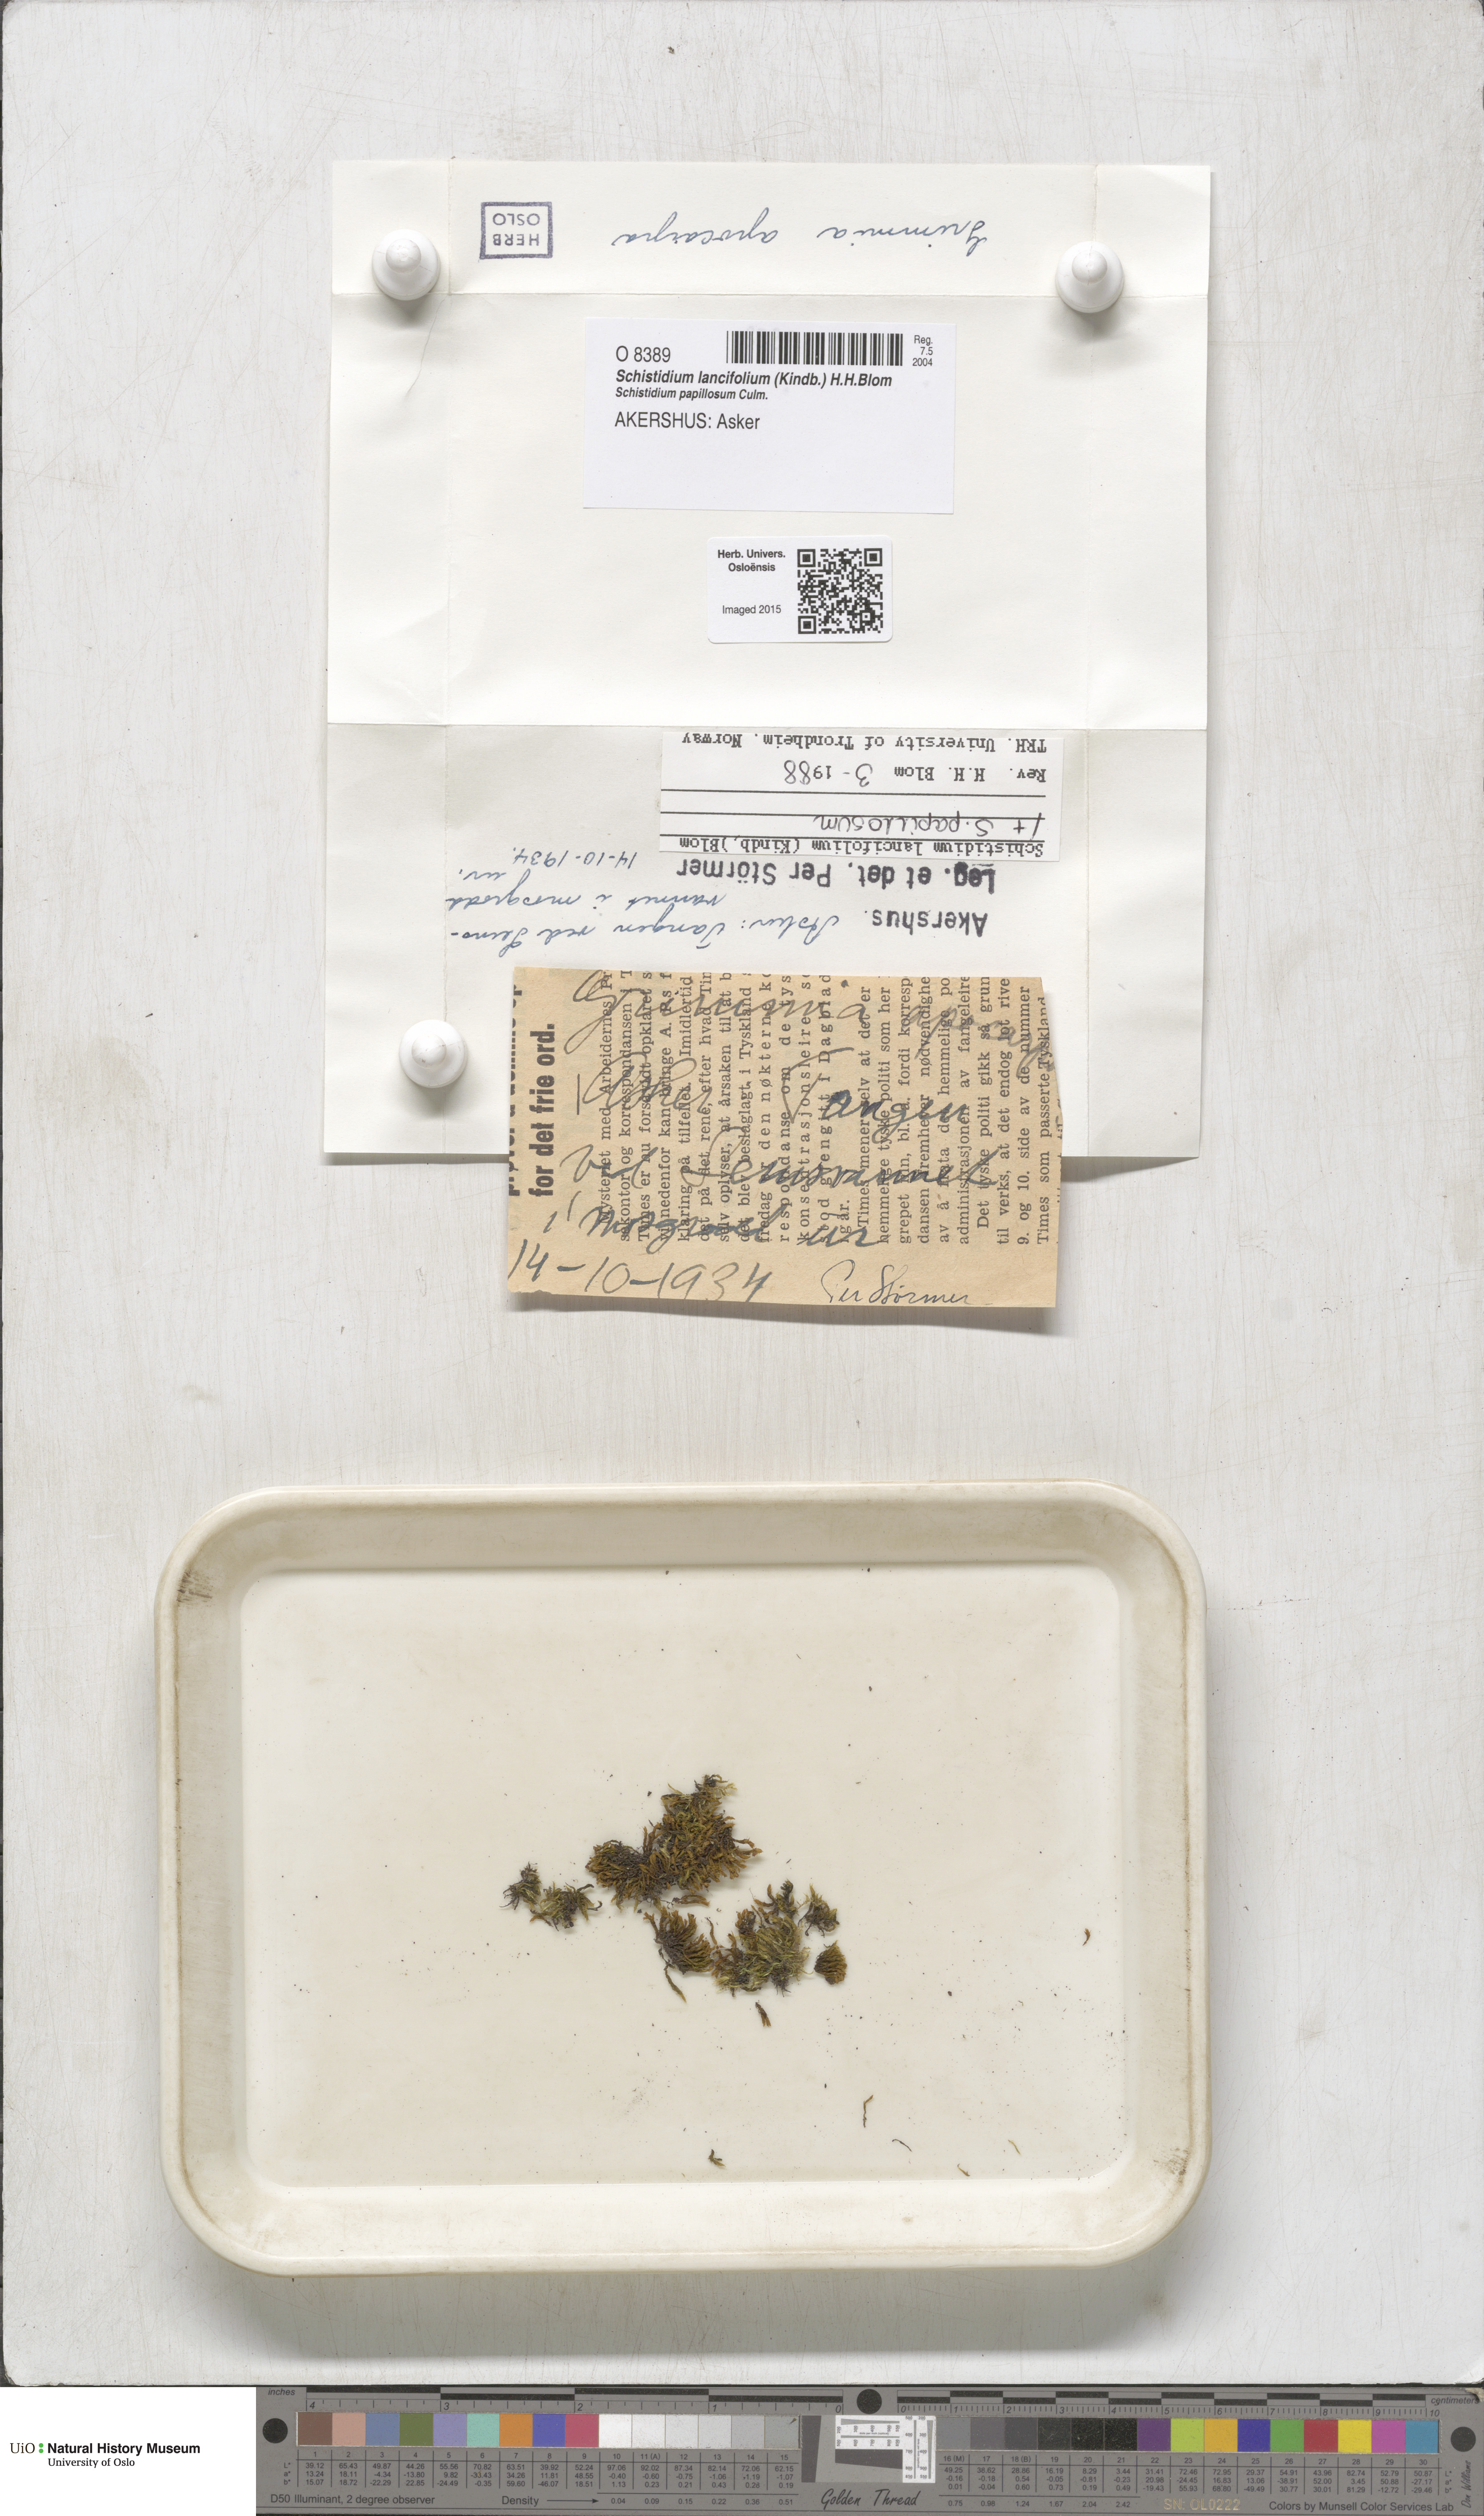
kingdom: Plantae
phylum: Bryophyta
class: Bryopsida
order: Grimmiales
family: Grimmiaceae
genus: Schistidium
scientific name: Schistidium lancifolium
